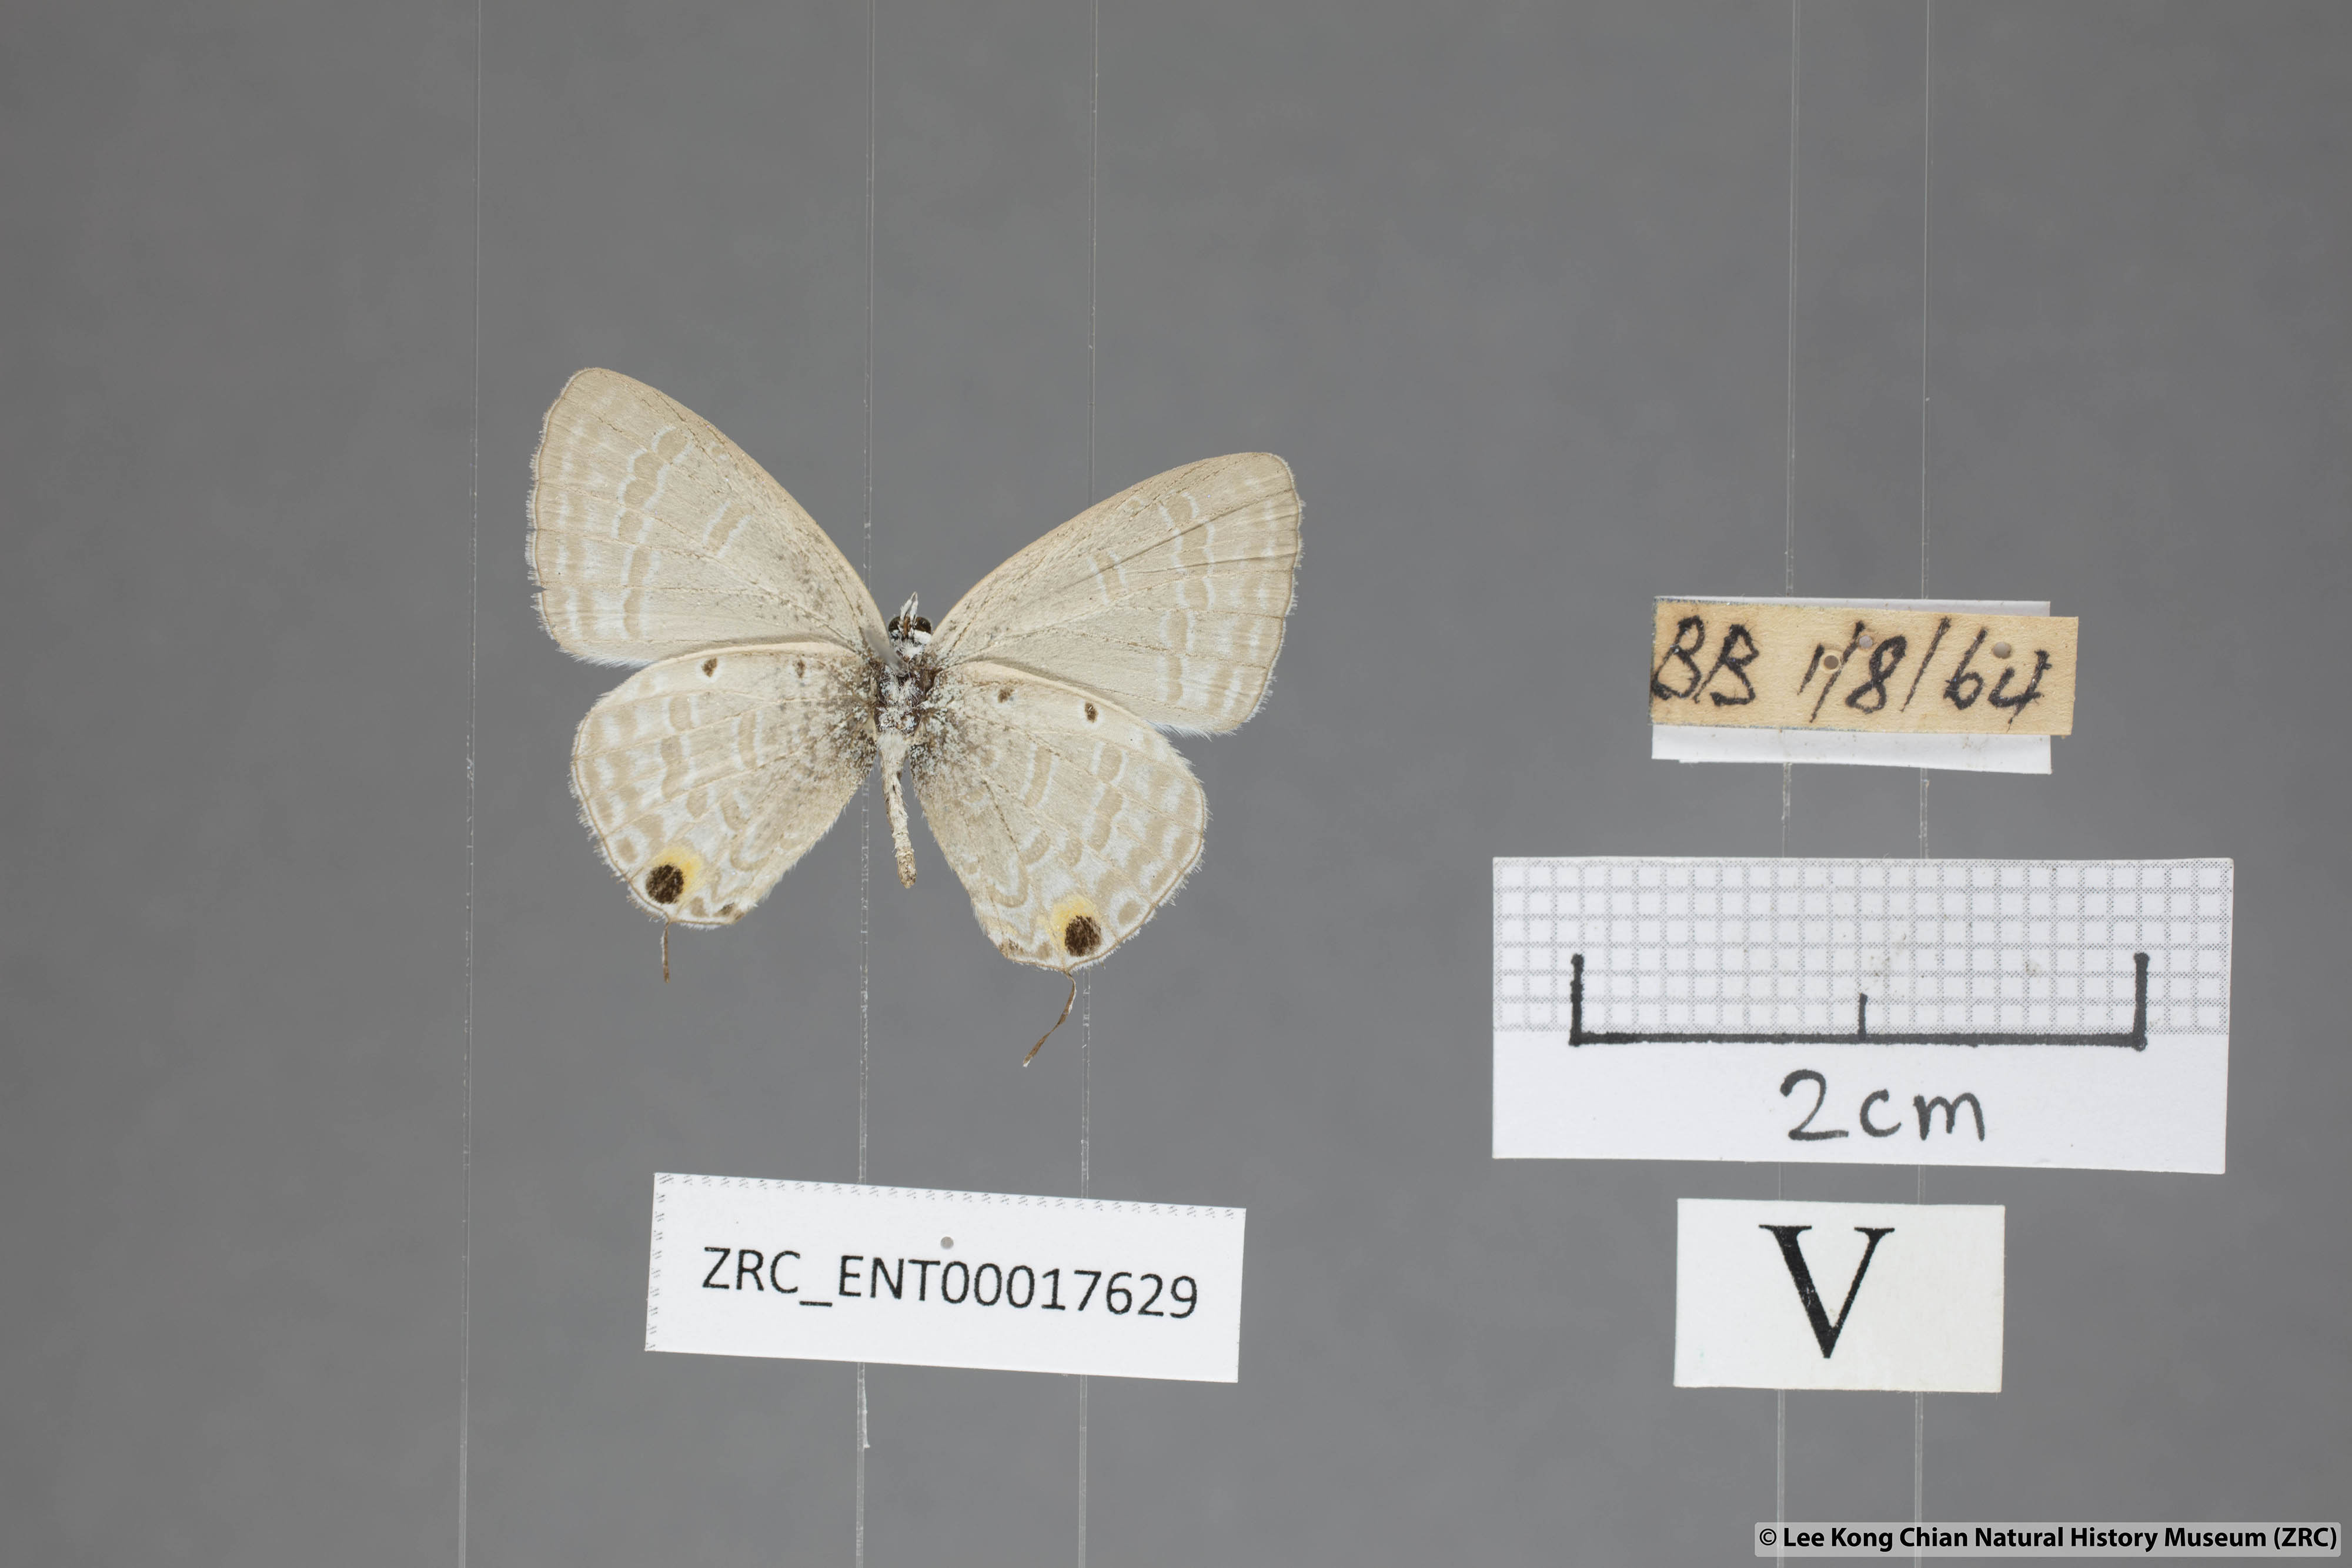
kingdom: Animalia
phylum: Arthropoda
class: Insecta
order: Lepidoptera
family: Lycaenidae
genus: Catochrysops
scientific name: Catochrysops strabo
